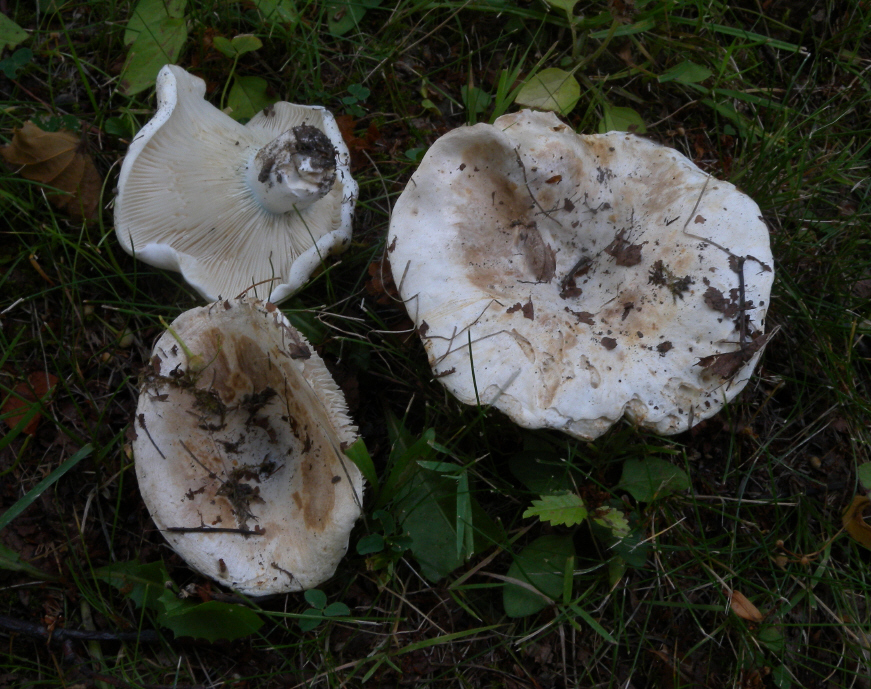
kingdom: Fungi
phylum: Basidiomycota
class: Agaricomycetes
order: Russulales
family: Russulaceae
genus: Russula
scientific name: Russula chloroides
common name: Blue band brittlegill
